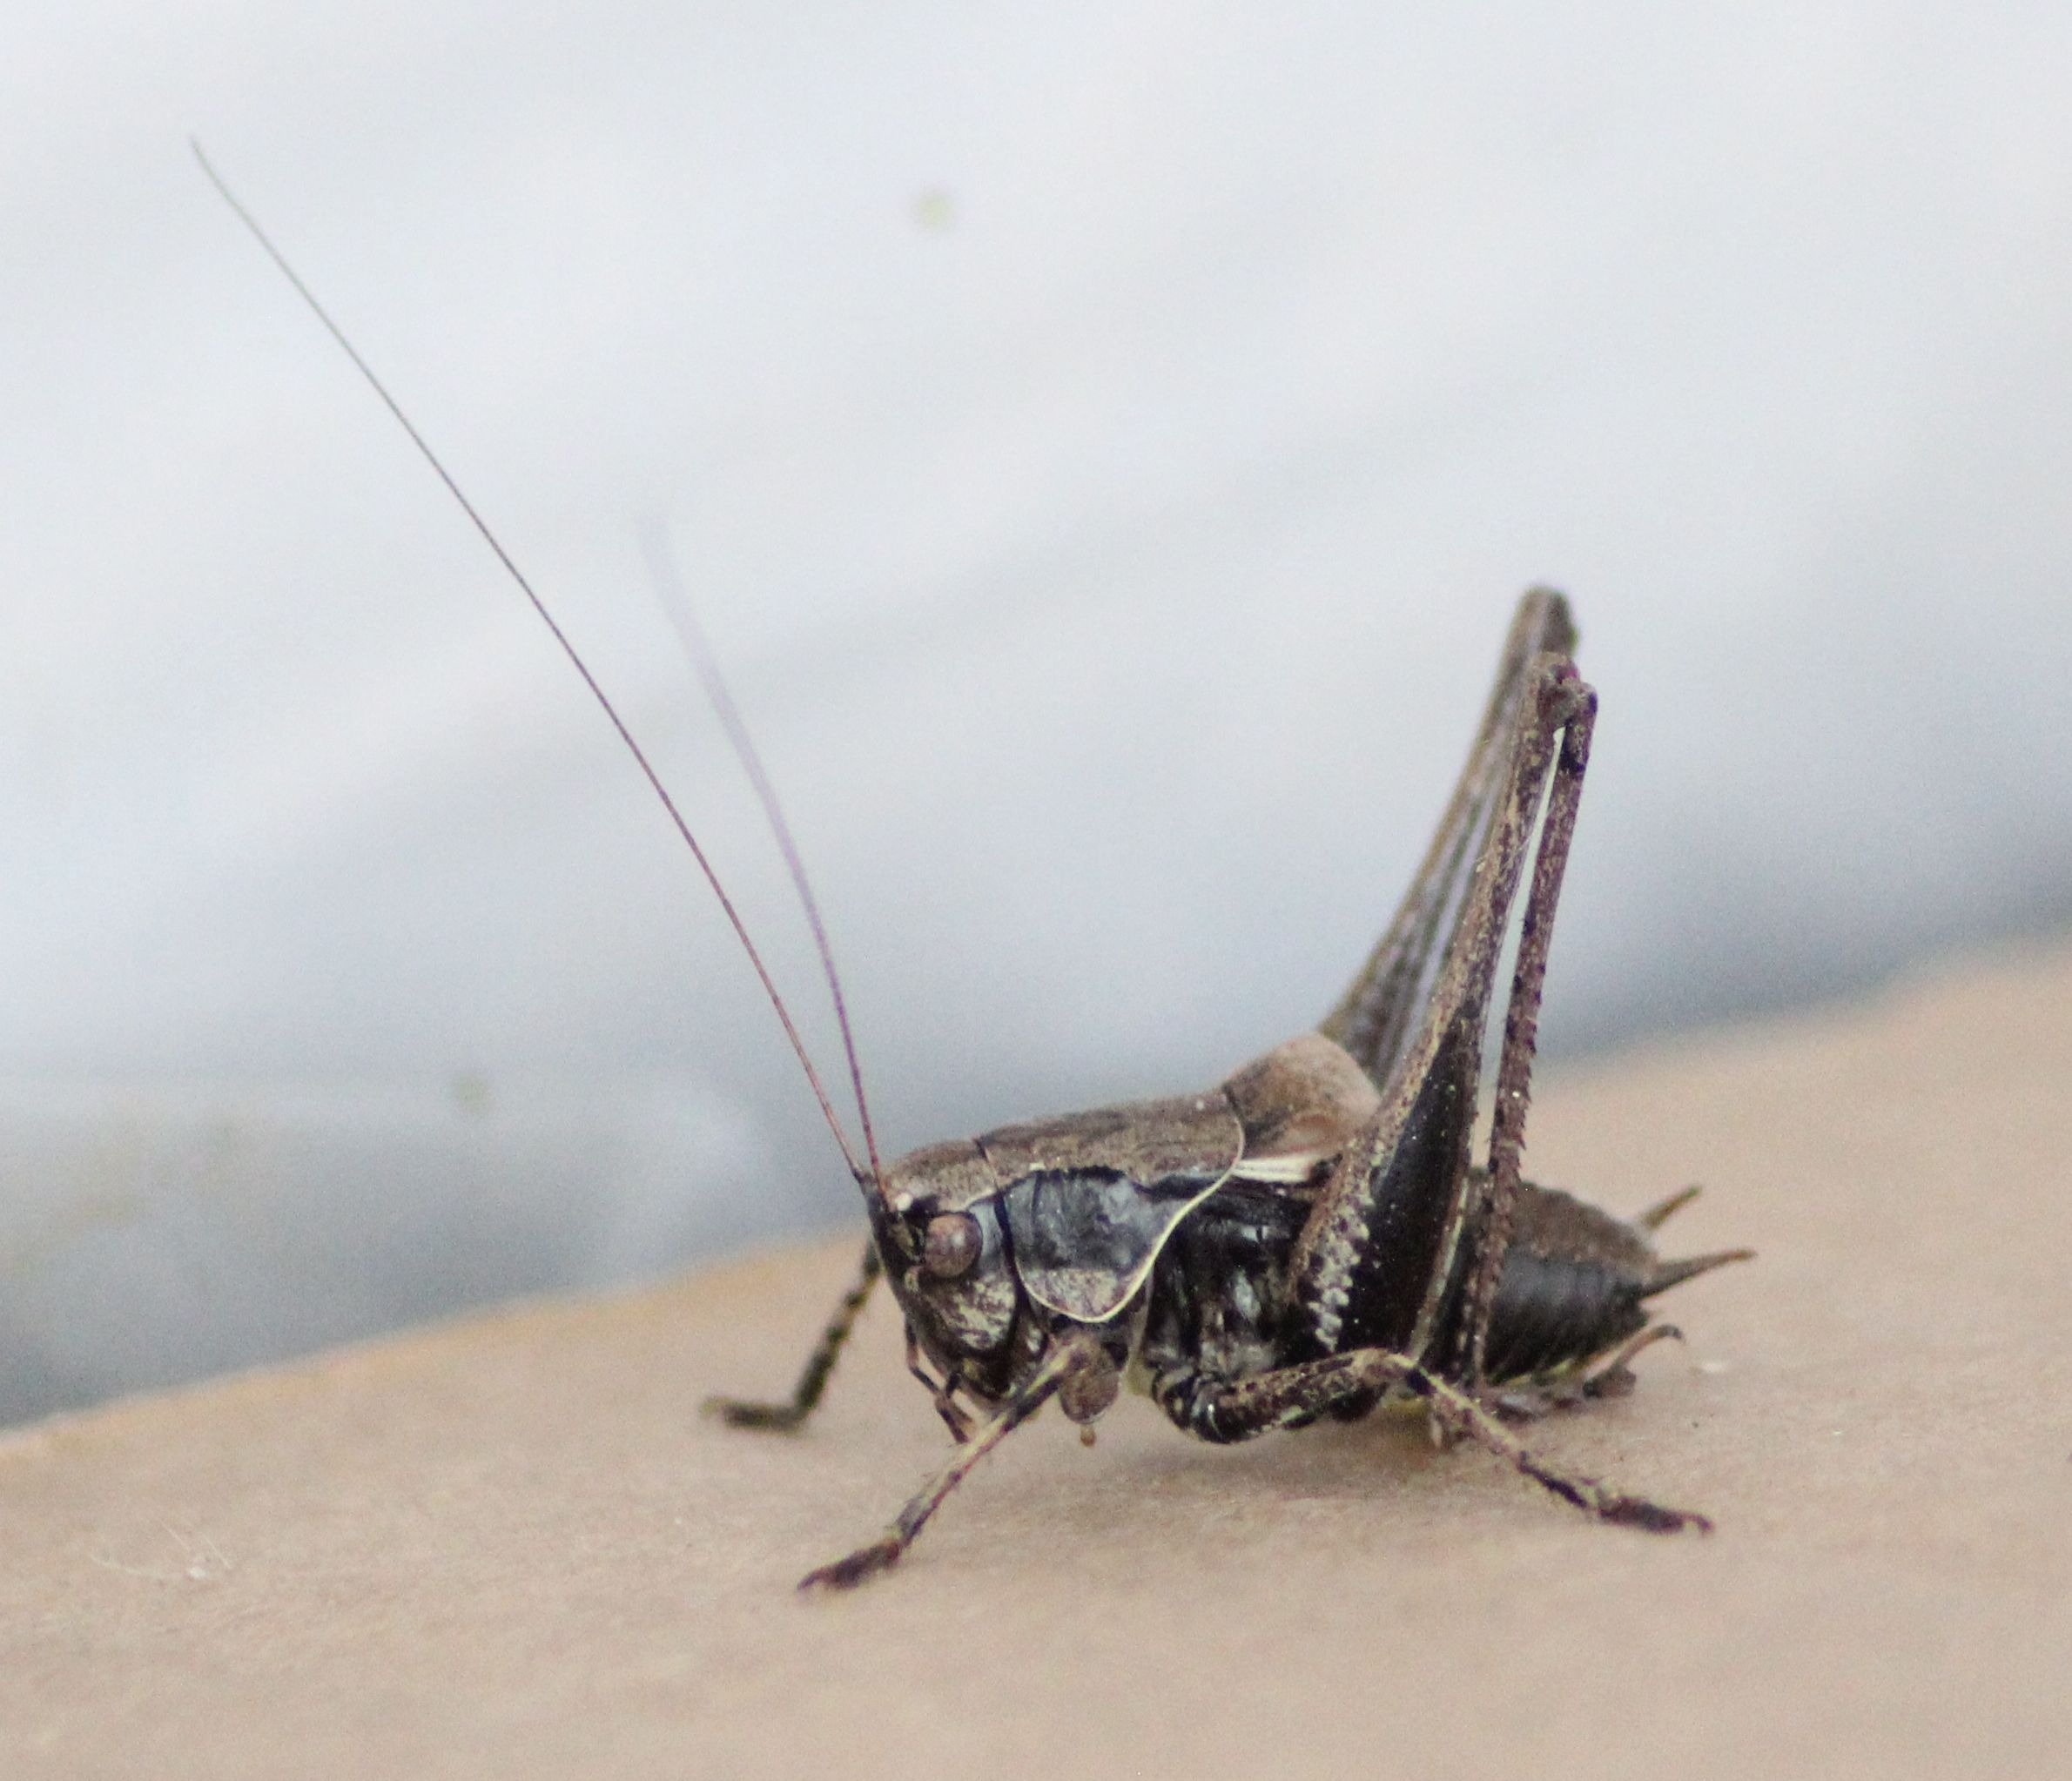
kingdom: Animalia
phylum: Arthropoda
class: Insecta
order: Orthoptera
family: Tettigoniidae
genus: Pholidoptera
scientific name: Pholidoptera griseoaptera
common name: Buskgræshoppe
